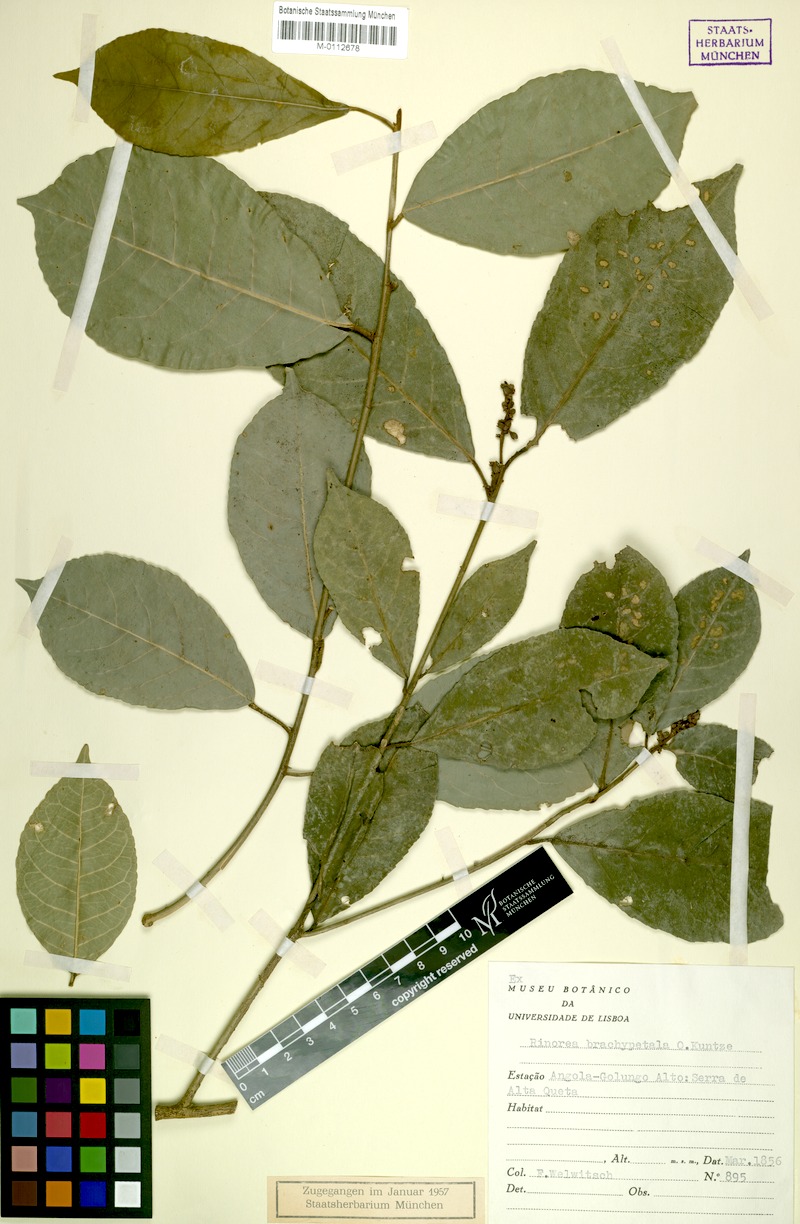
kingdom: Plantae
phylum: Tracheophyta
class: Magnoliopsida
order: Malpighiales
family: Violaceae
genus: Rinorea
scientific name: Rinorea brachypetala
